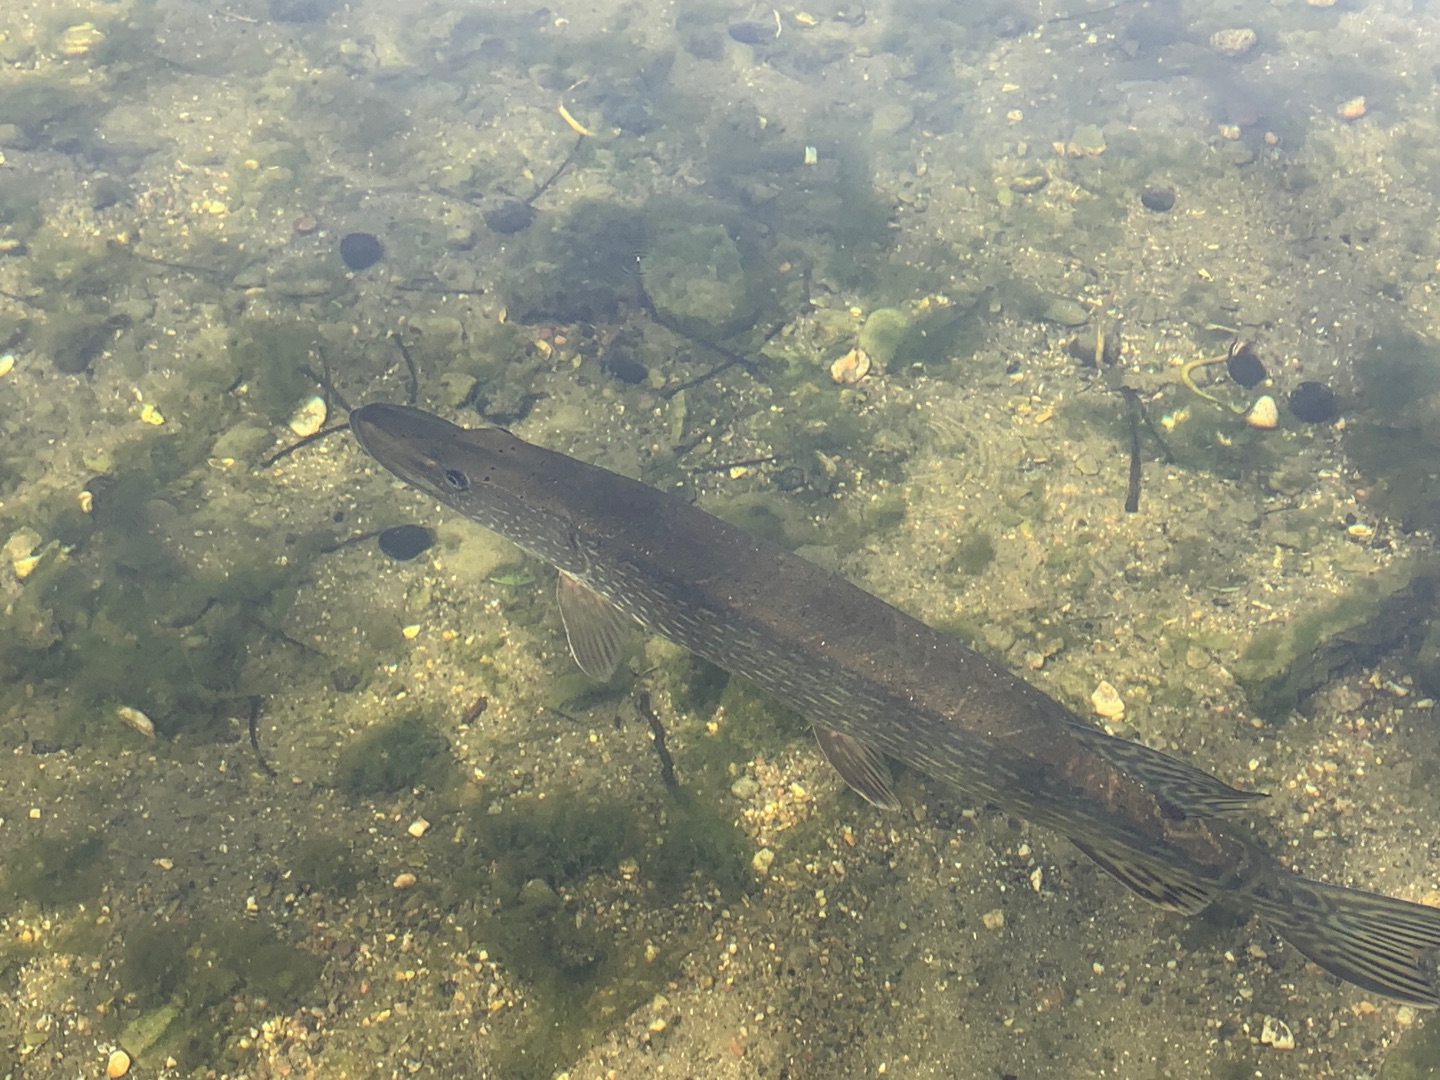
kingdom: Animalia
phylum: Chordata
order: Esociformes
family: Esocidae
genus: Esox
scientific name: Esox lucius
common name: Gedde
